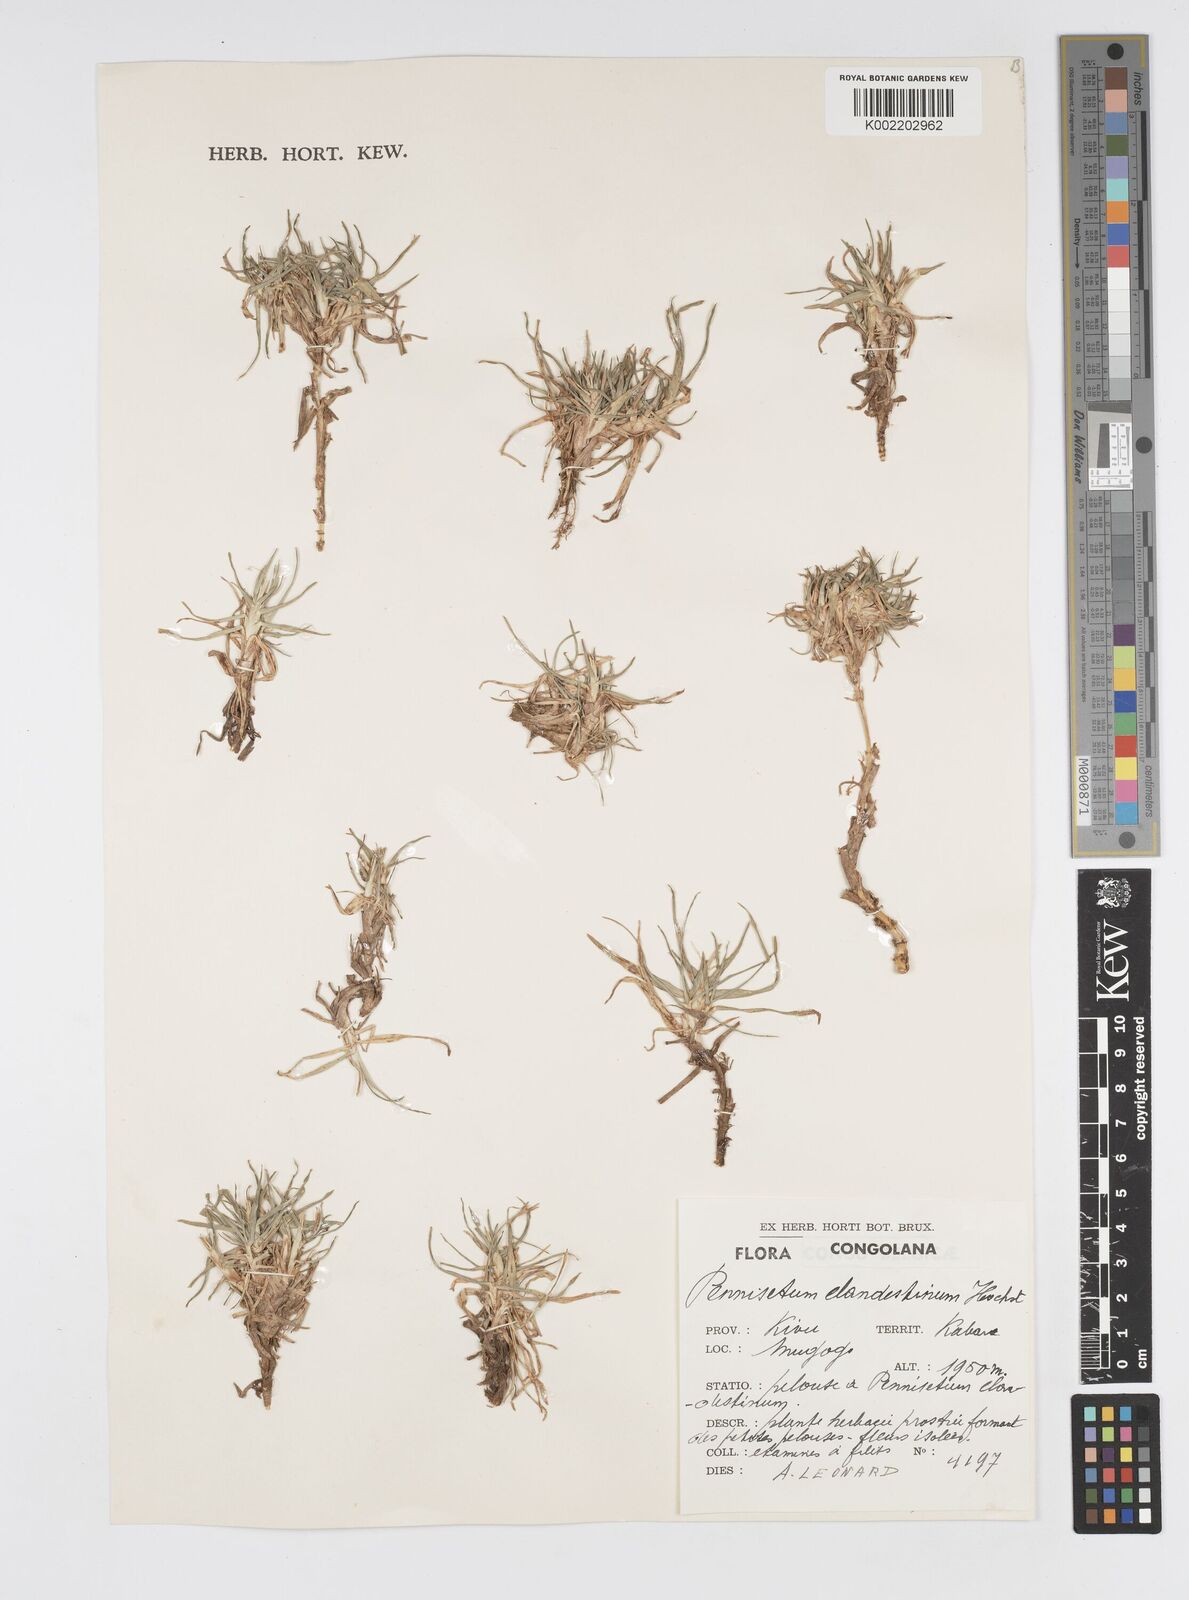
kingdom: Plantae
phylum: Tracheophyta
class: Liliopsida
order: Poales
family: Poaceae
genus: Cenchrus
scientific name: Cenchrus clandestinus
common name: Kikuyugrass
